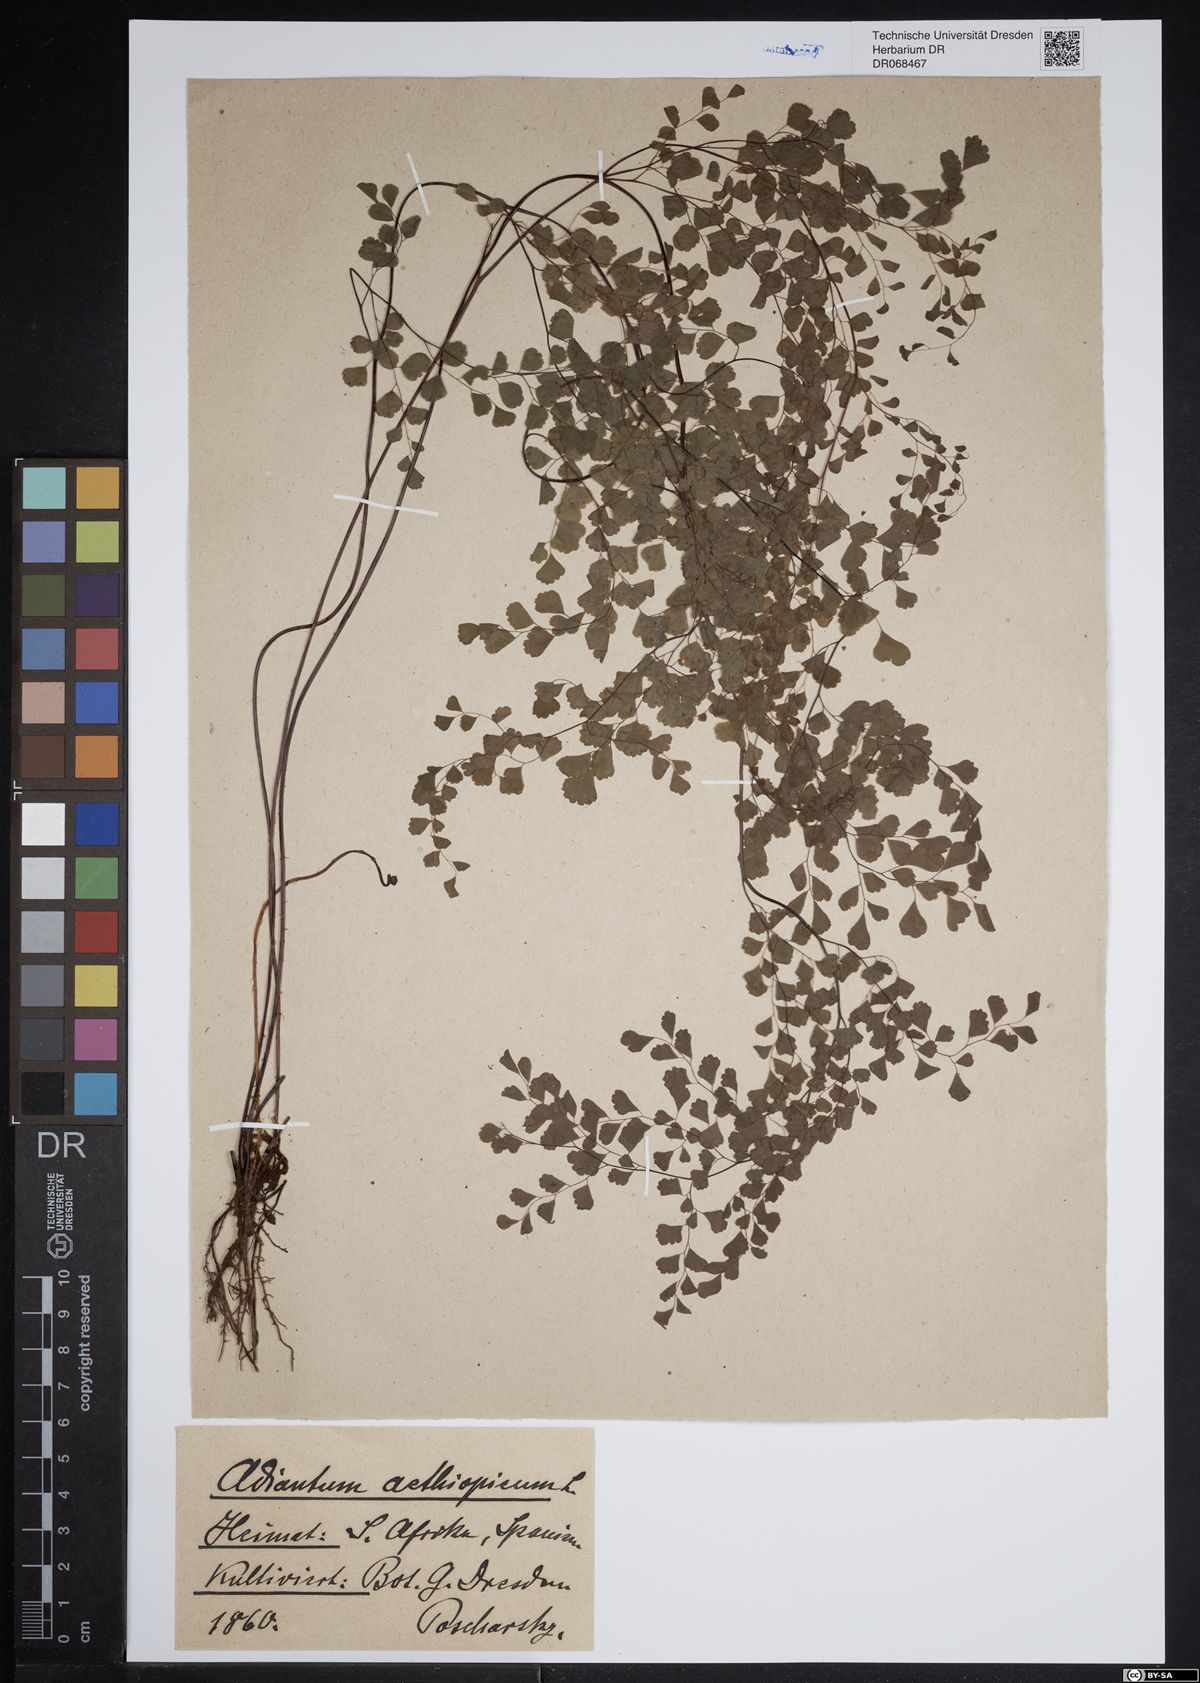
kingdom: Plantae
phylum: Tracheophyta
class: Polypodiopsida
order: Polypodiales
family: Pteridaceae
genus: Adiantum
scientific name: Adiantum aethiopicum
